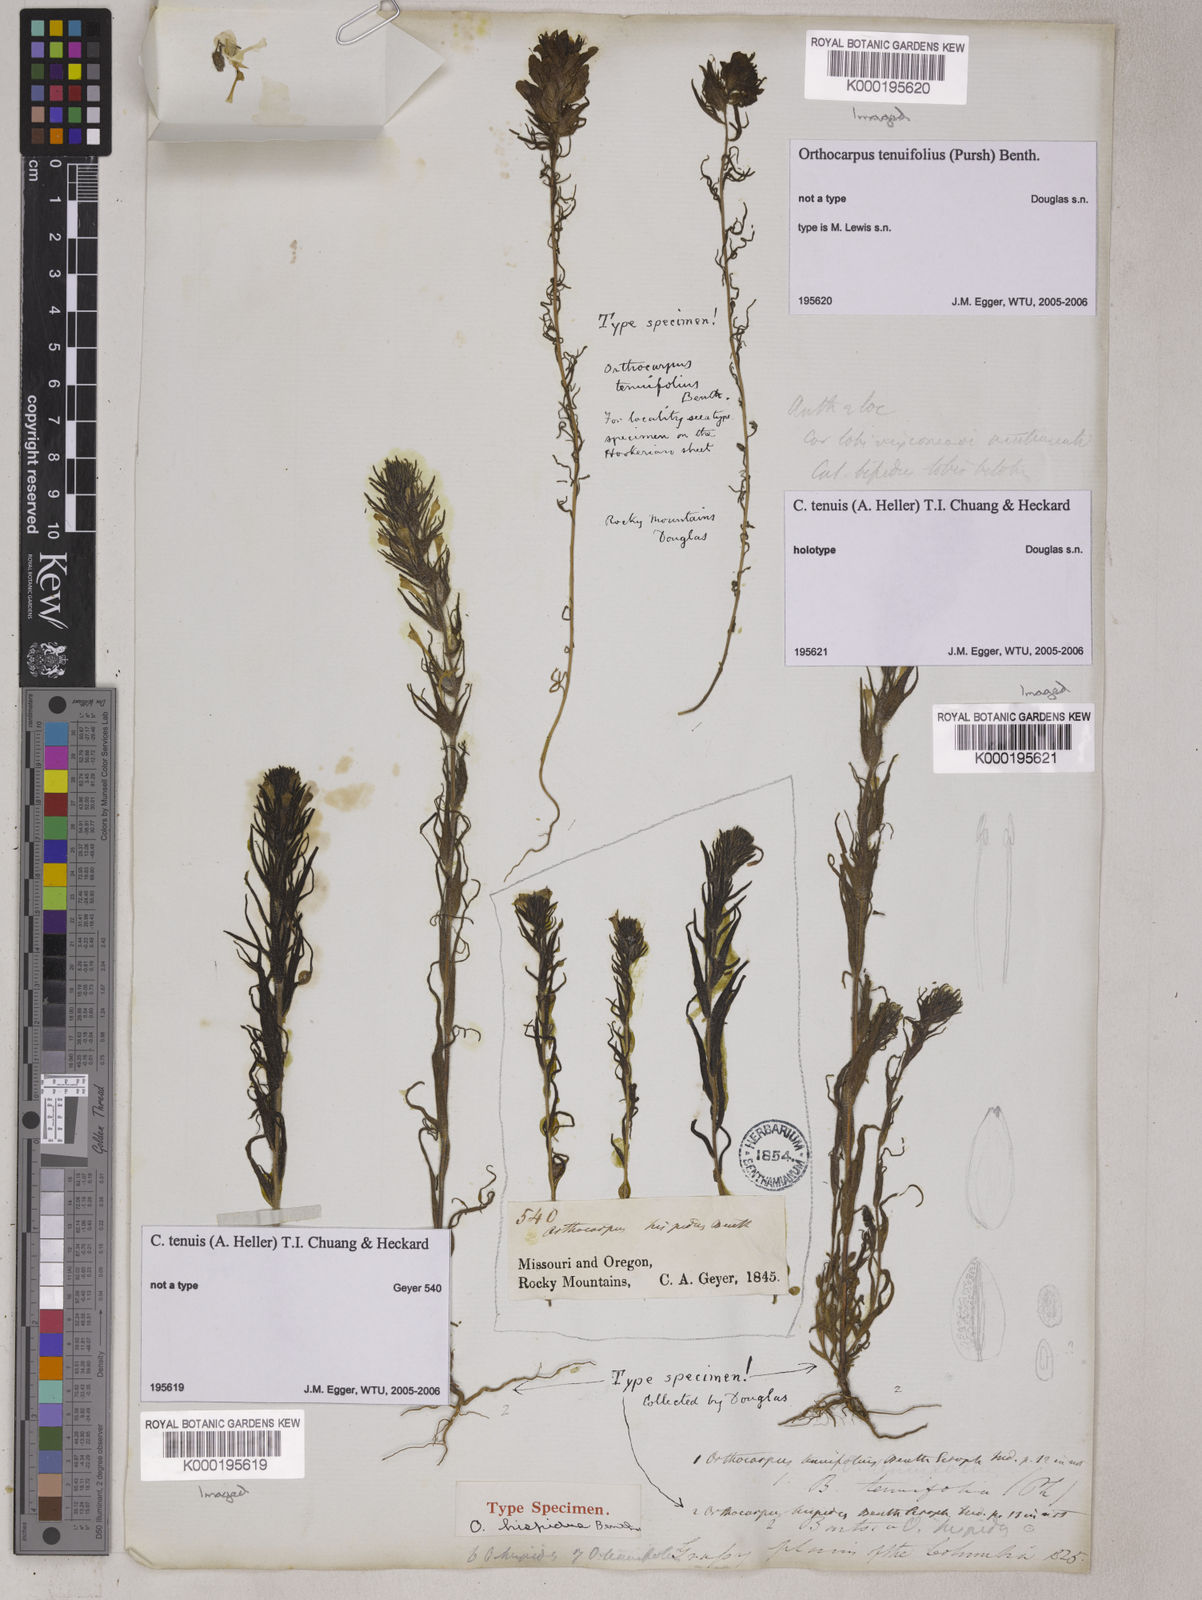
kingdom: Plantae
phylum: Tracheophyta
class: Magnoliopsida
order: Lamiales
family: Orobanchaceae
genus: Castilleja
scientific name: Castilleja tenuis
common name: Hairy indian paintbrush
